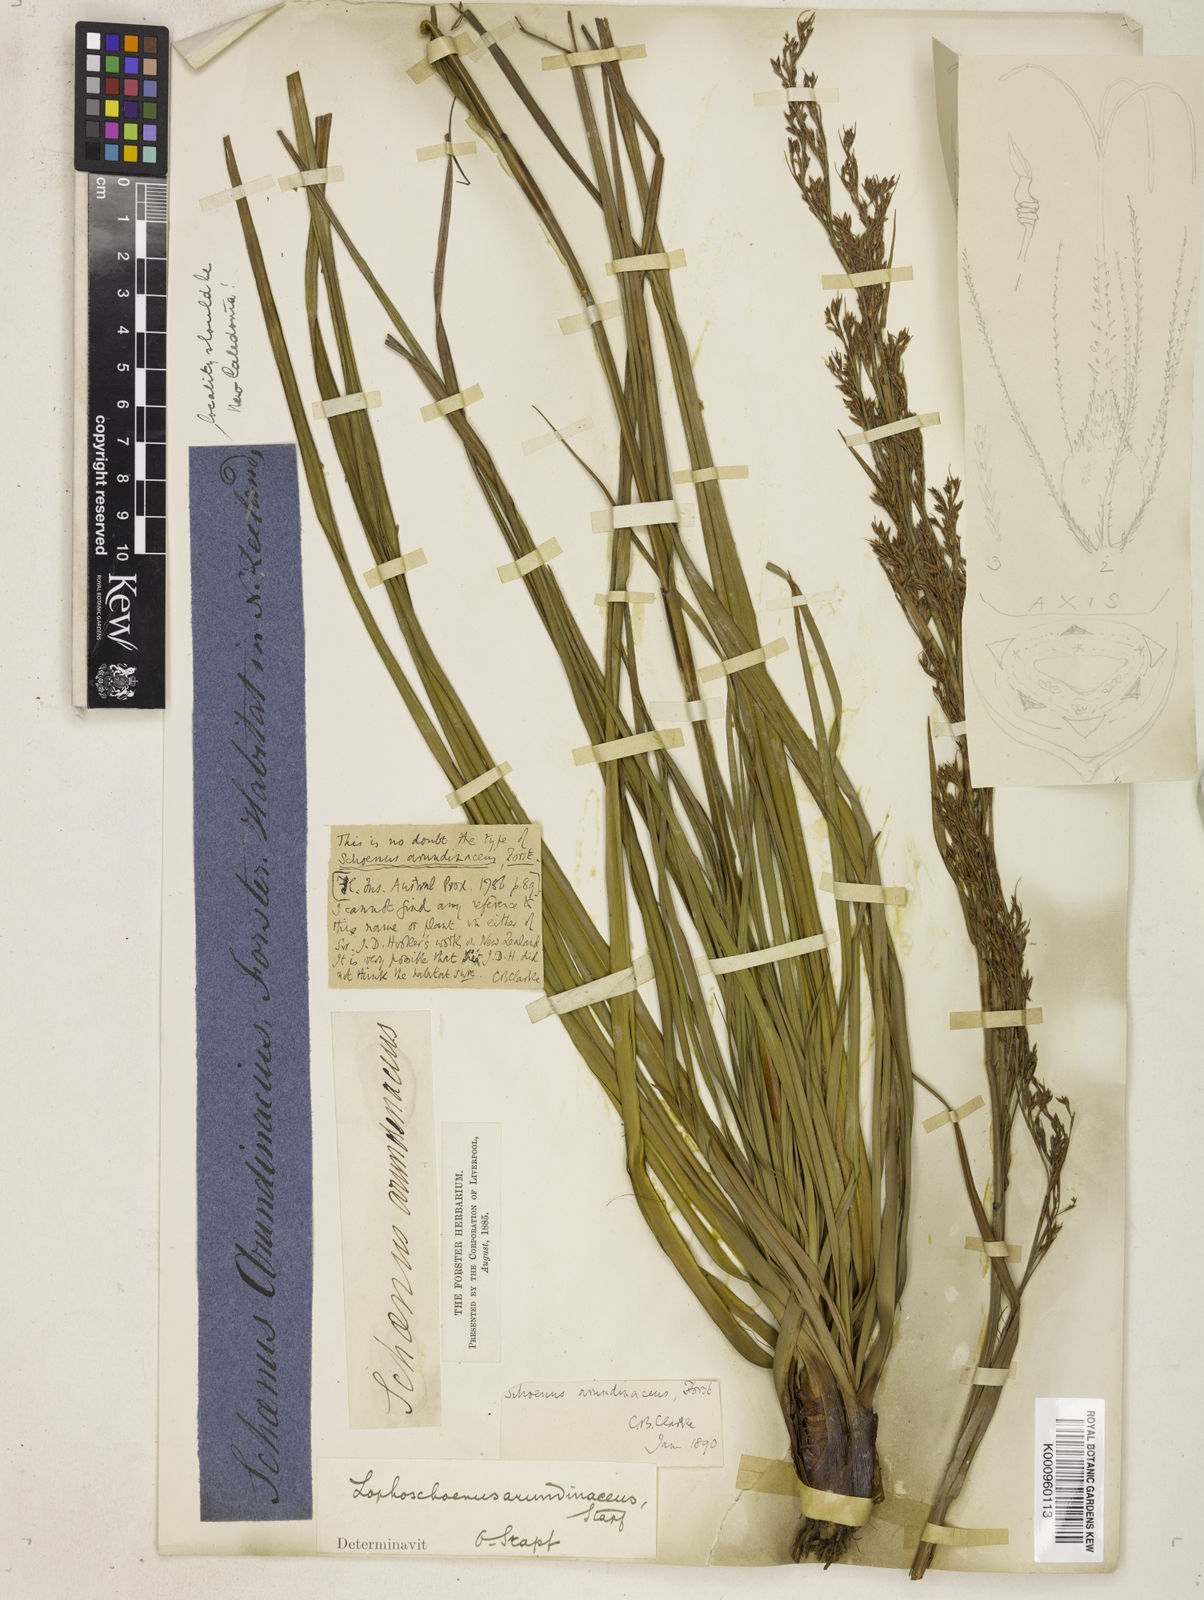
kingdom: Plantae
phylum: Tracheophyta
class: Liliopsida
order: Poales
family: Cyperaceae
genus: Costularia
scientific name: Costularia
